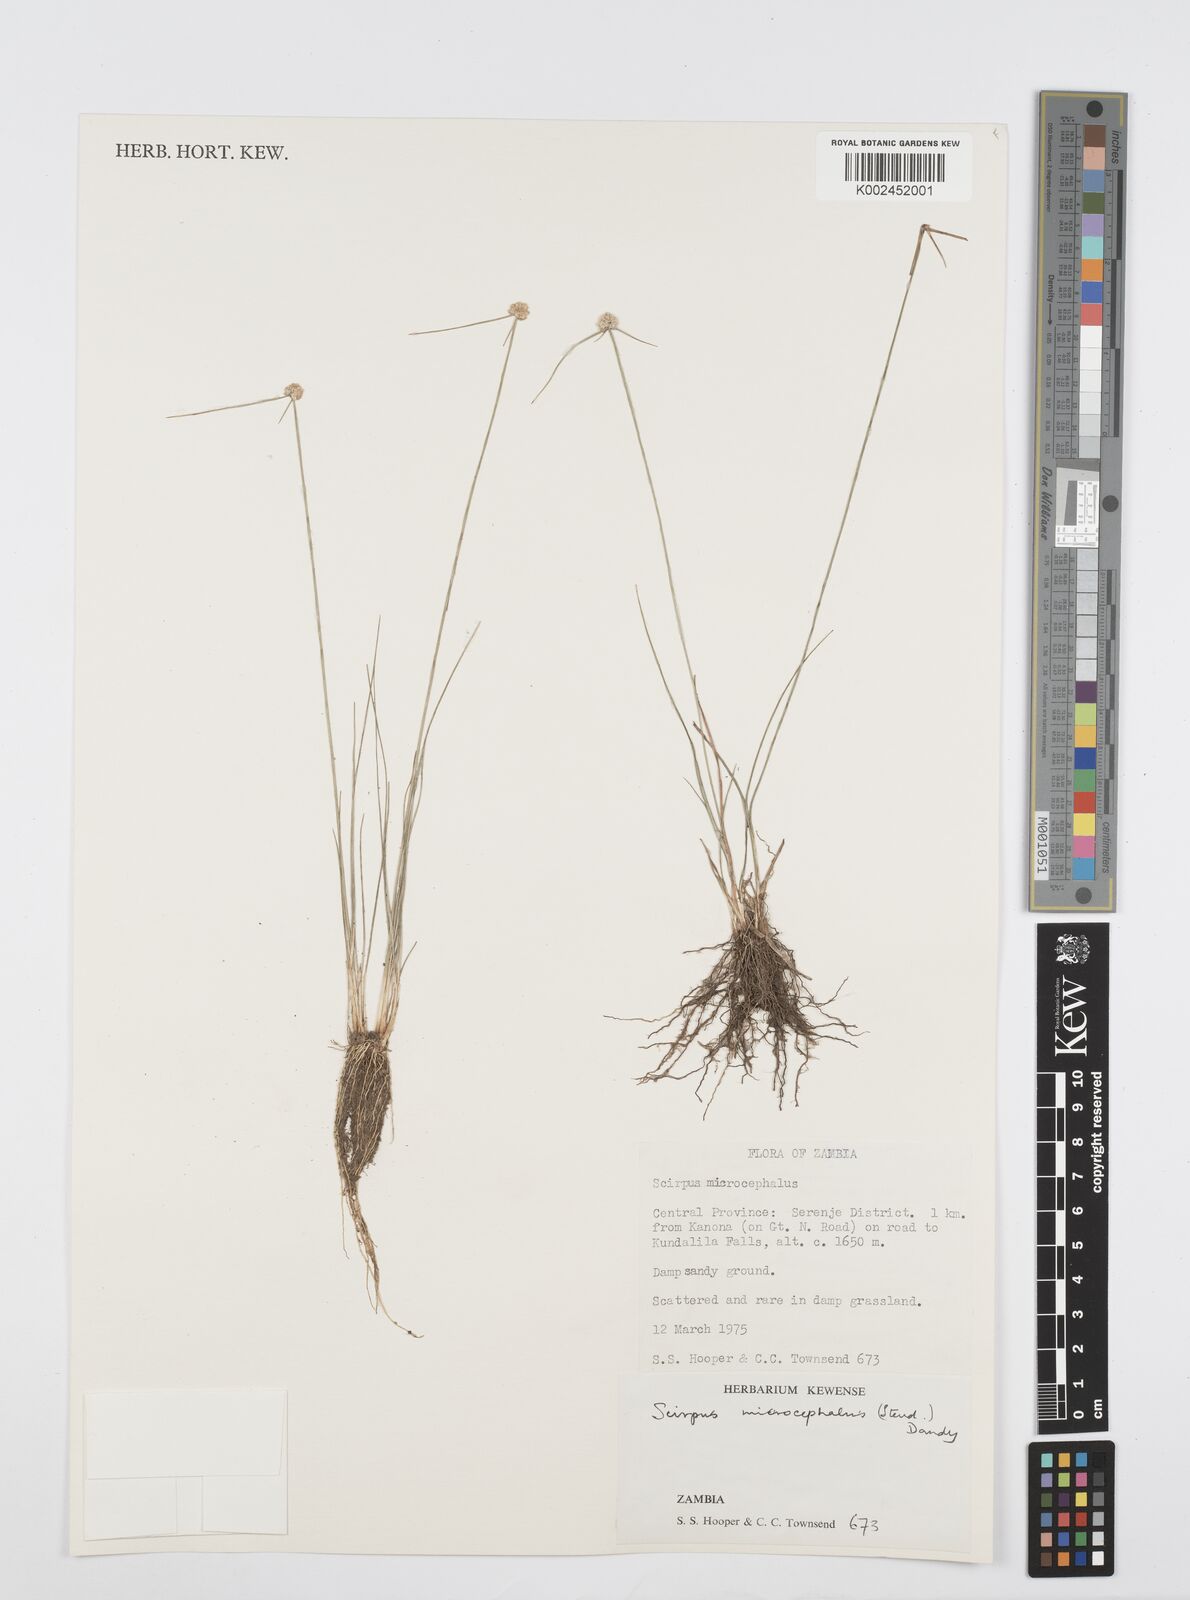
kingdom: Plantae
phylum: Tracheophyta
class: Liliopsida
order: Poales
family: Cyperaceae
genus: Cyperus
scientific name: Cyperus microcephalus
